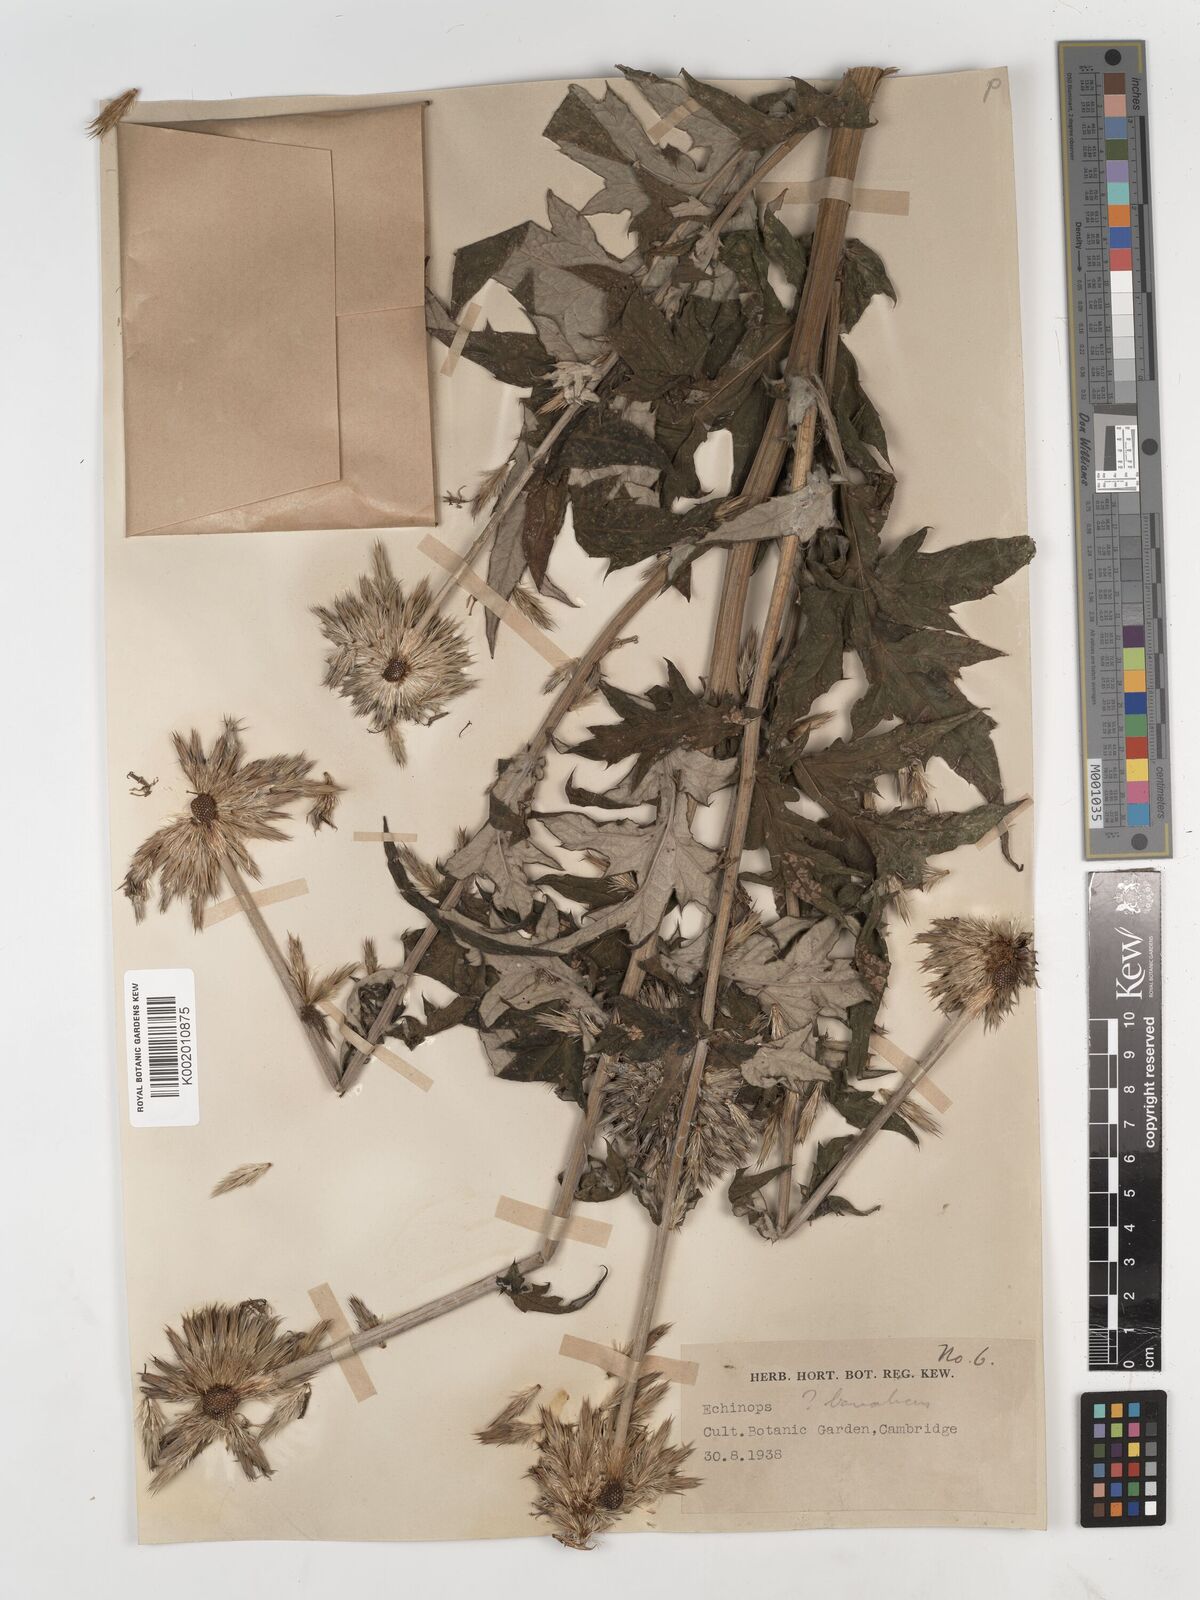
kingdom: Plantae
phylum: Tracheophyta
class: Magnoliopsida
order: Asterales
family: Asteraceae
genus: Echinops
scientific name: Echinops bannaticus
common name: Blue globe-thistle
